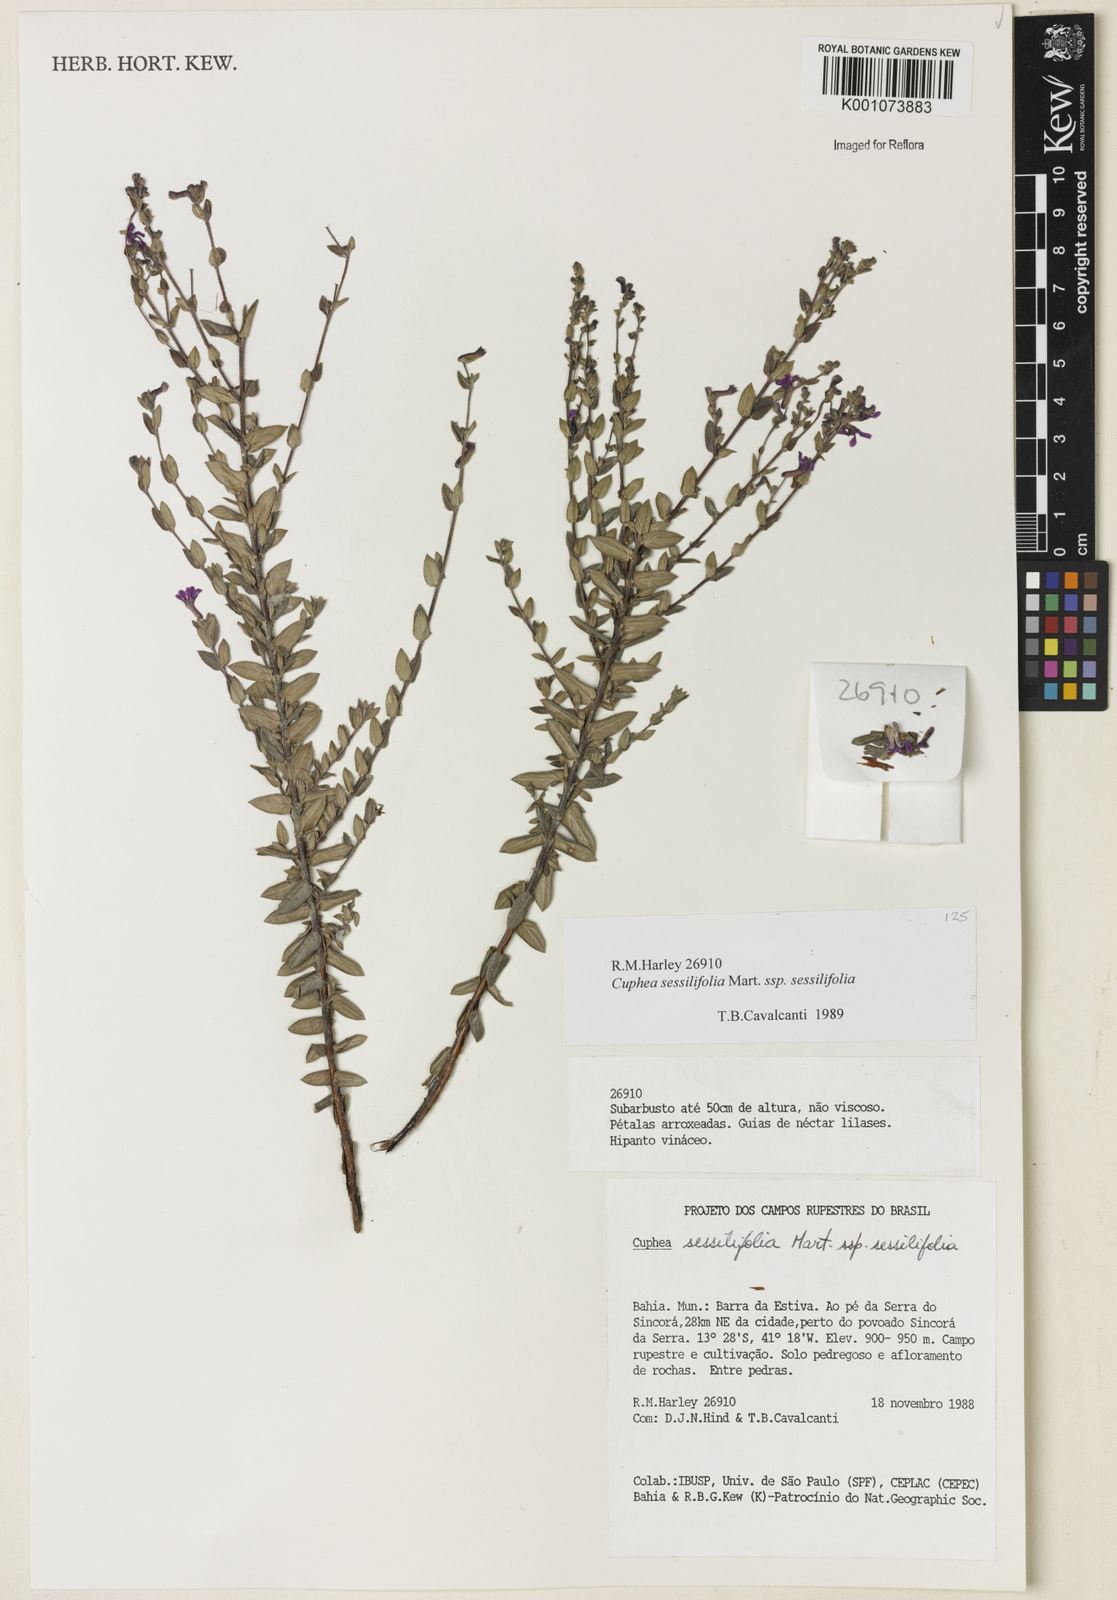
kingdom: Plantae
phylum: Tracheophyta
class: Magnoliopsida
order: Myrtales
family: Lythraceae
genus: Cuphea
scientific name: Cuphea sessilifolia
